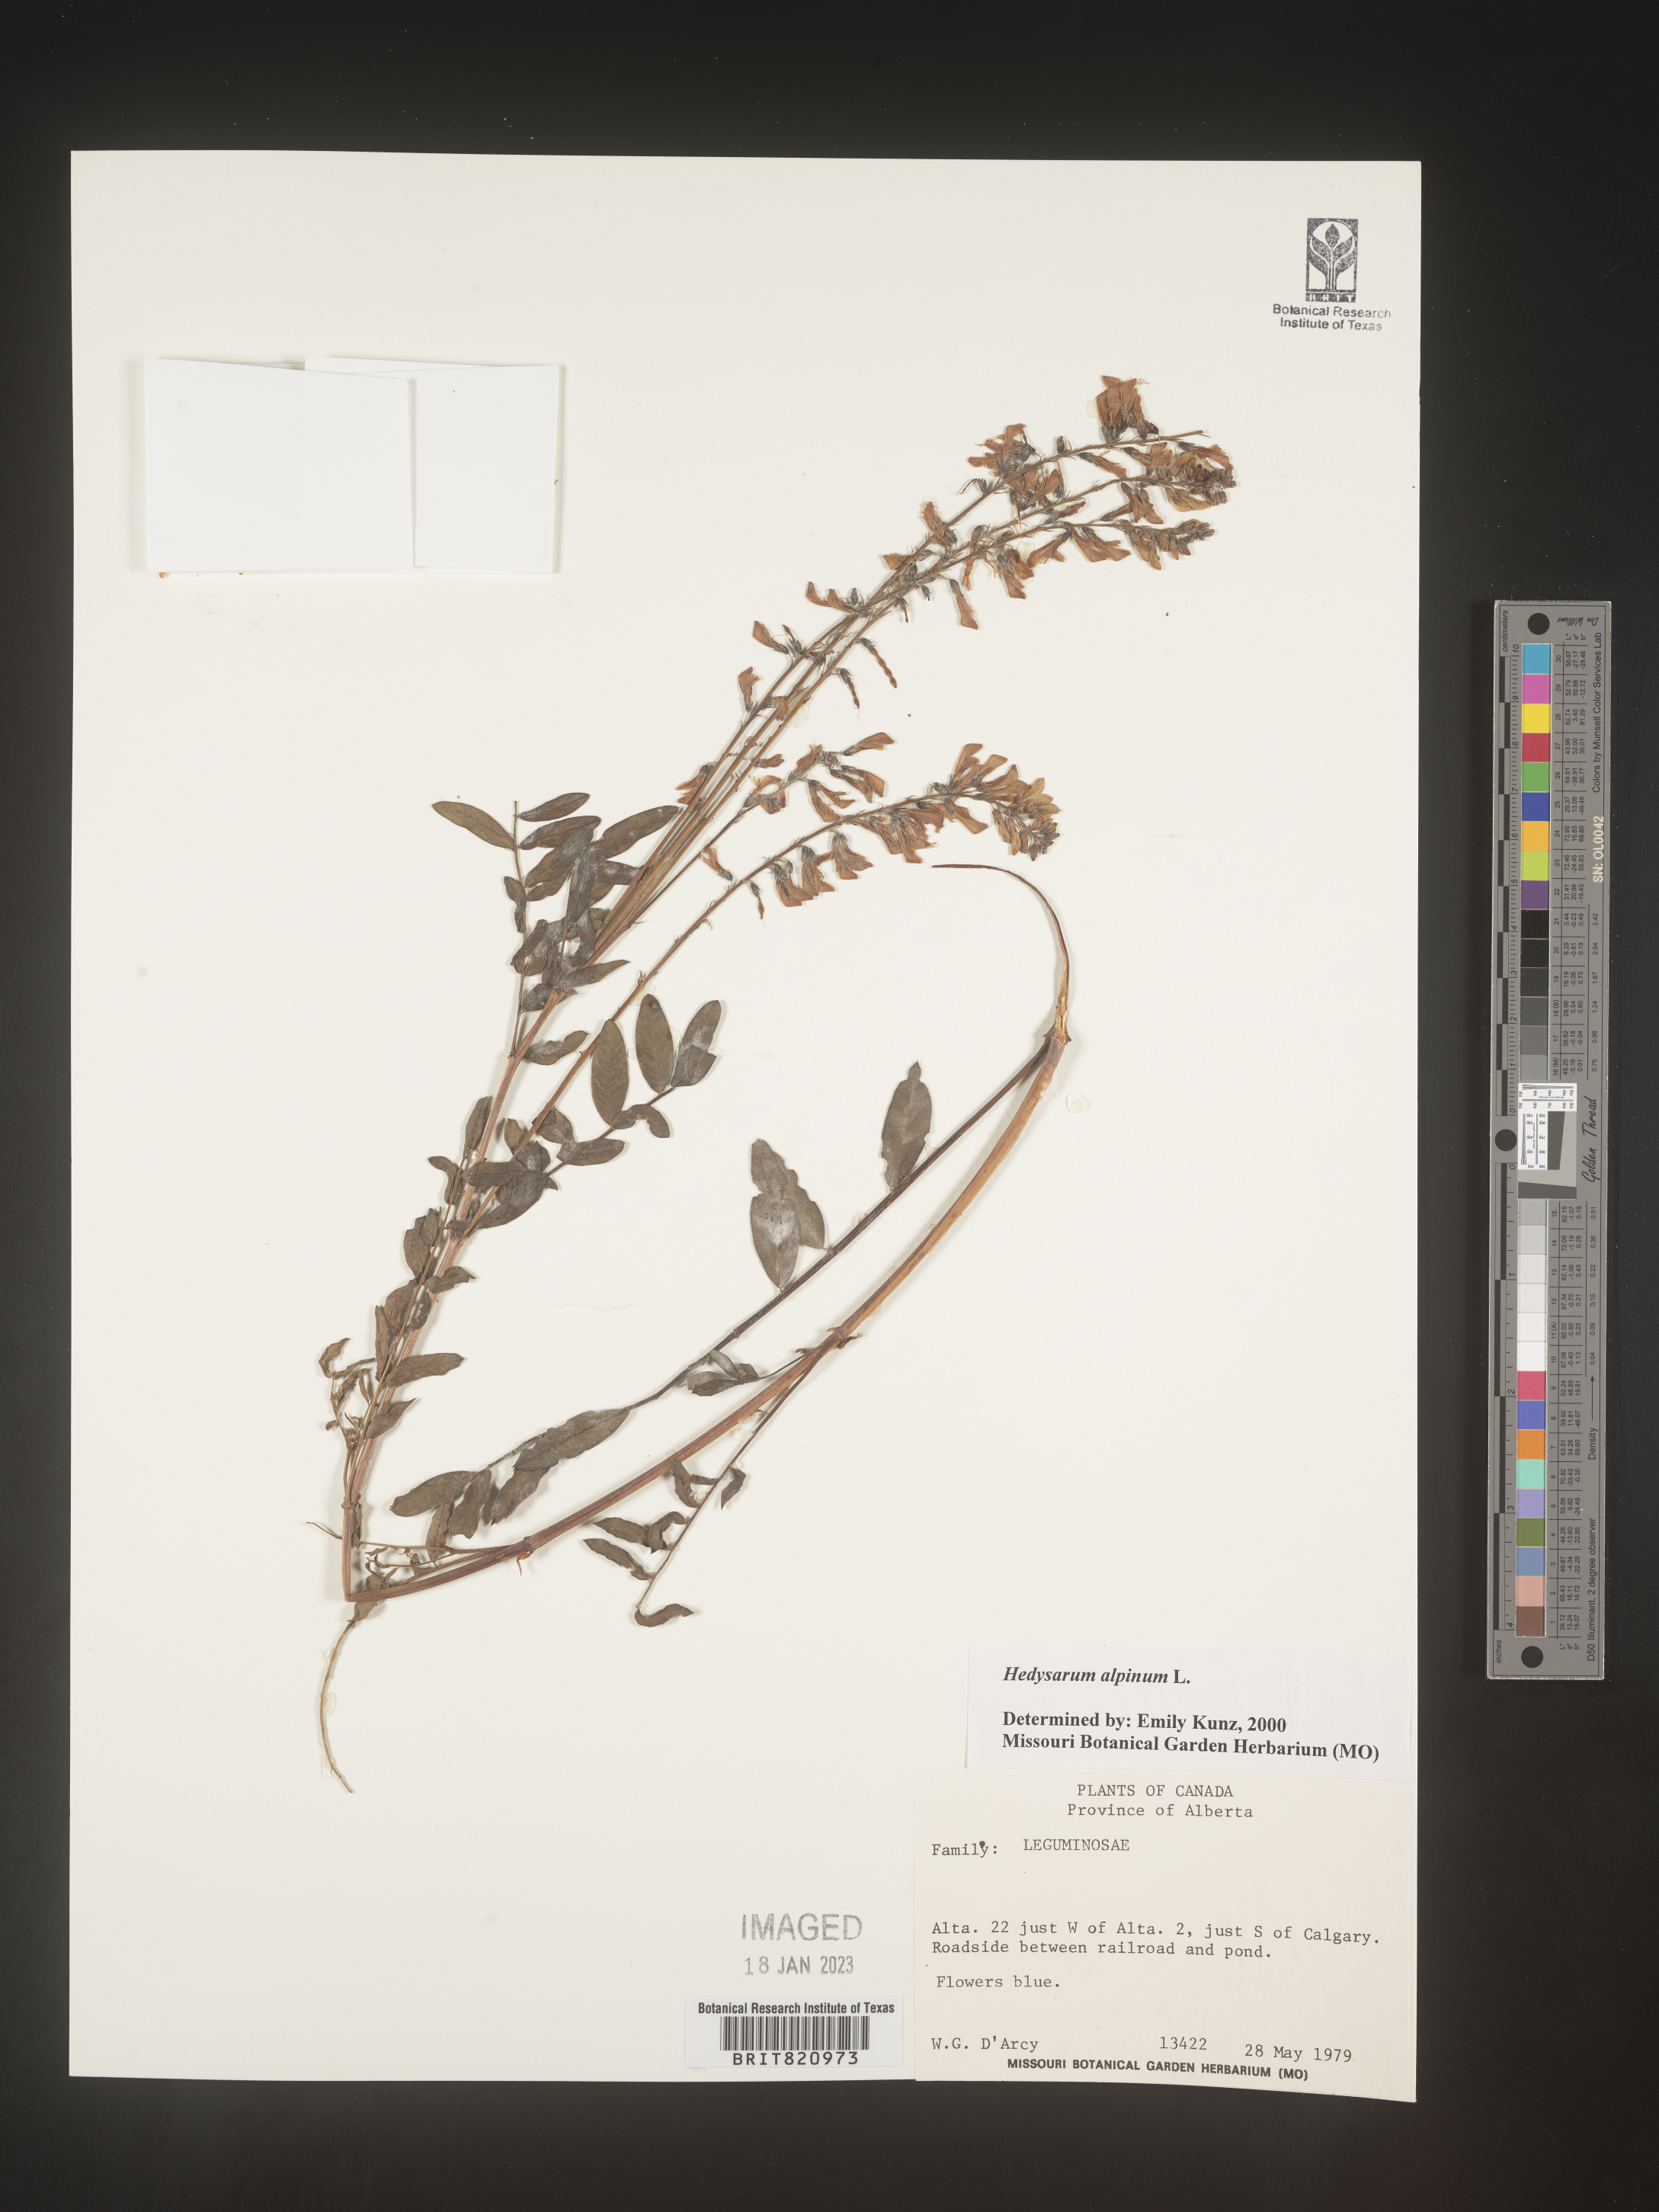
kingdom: Plantae
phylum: Tracheophyta
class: Magnoliopsida
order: Fabales
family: Fabaceae
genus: Hedysarum
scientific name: Hedysarum alpinum
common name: Alpine sweet-vetch
